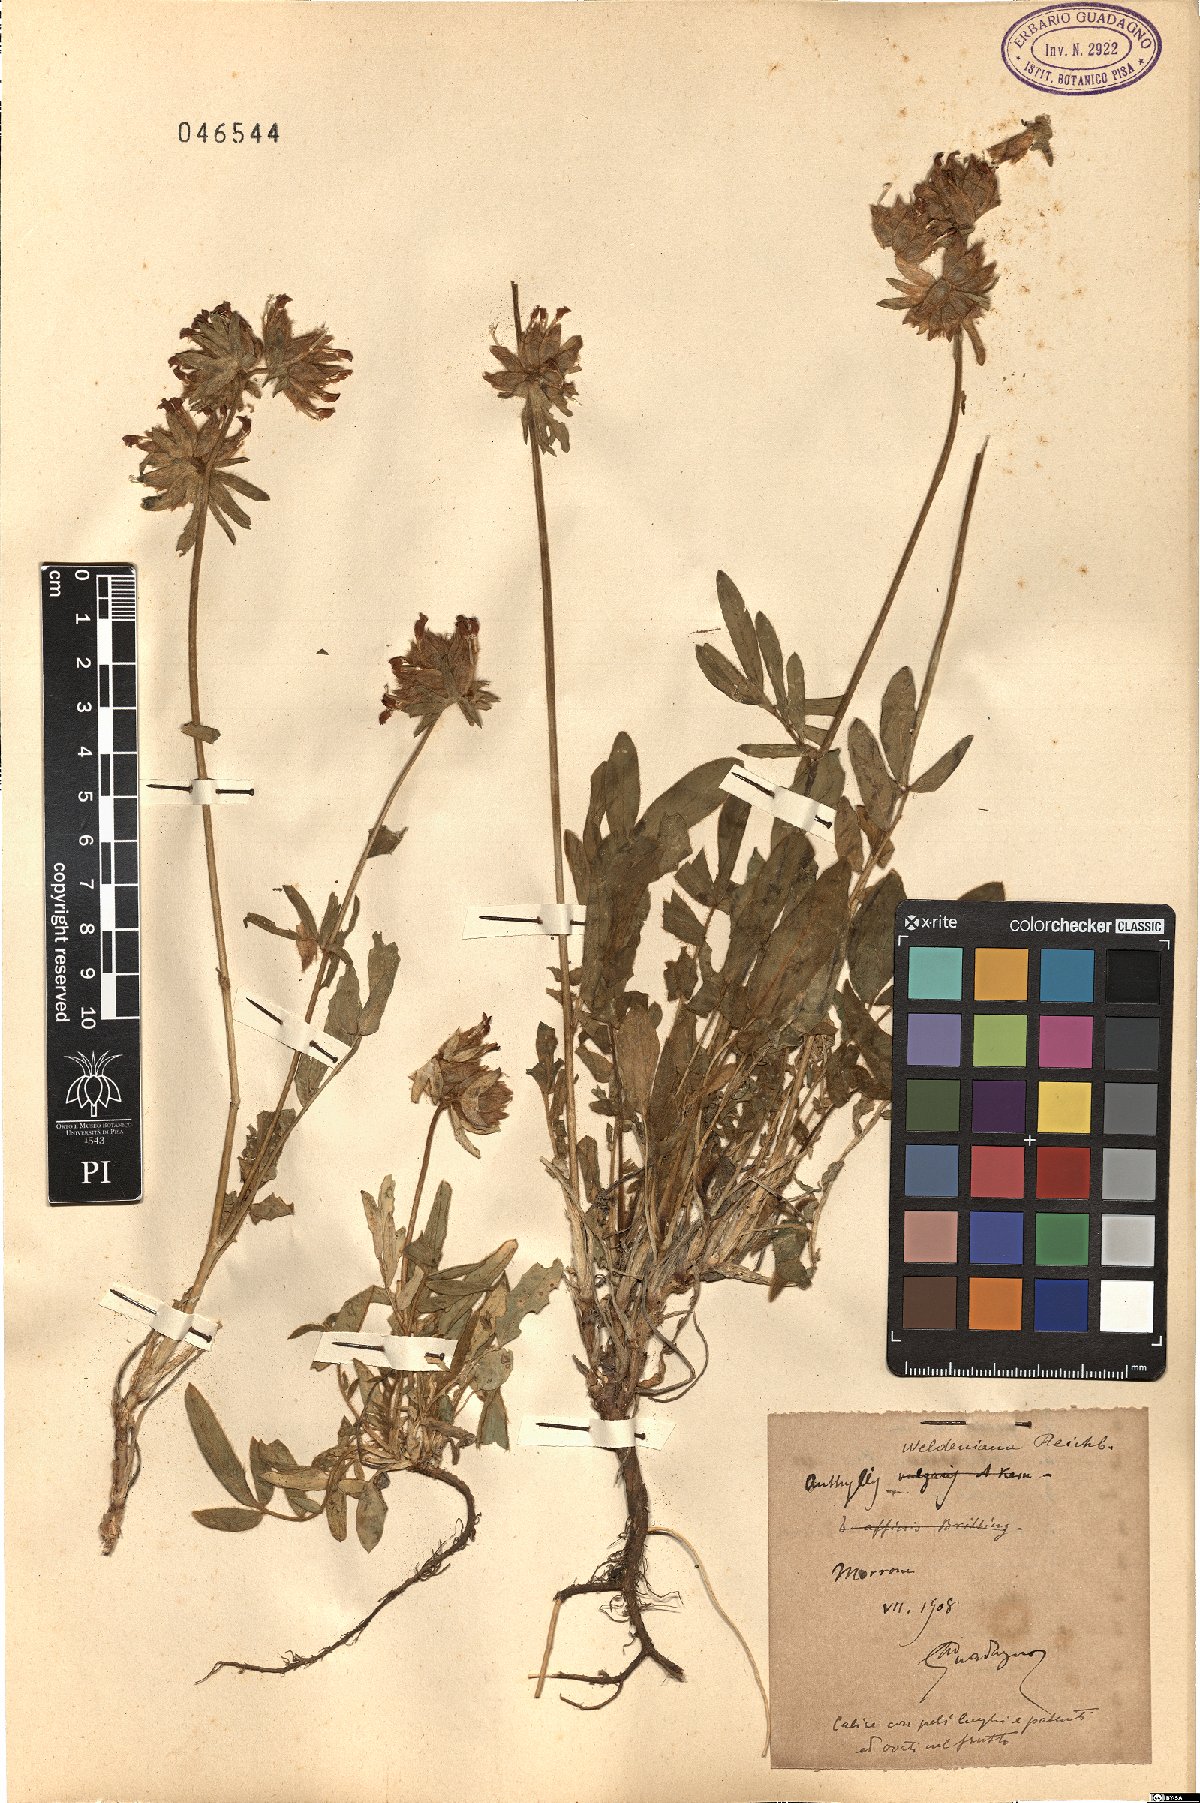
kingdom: Plantae
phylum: Tracheophyta
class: Magnoliopsida
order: Fabales
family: Fabaceae
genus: Anthyllis
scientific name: Anthyllis vulneraria
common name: Kidney vetch
